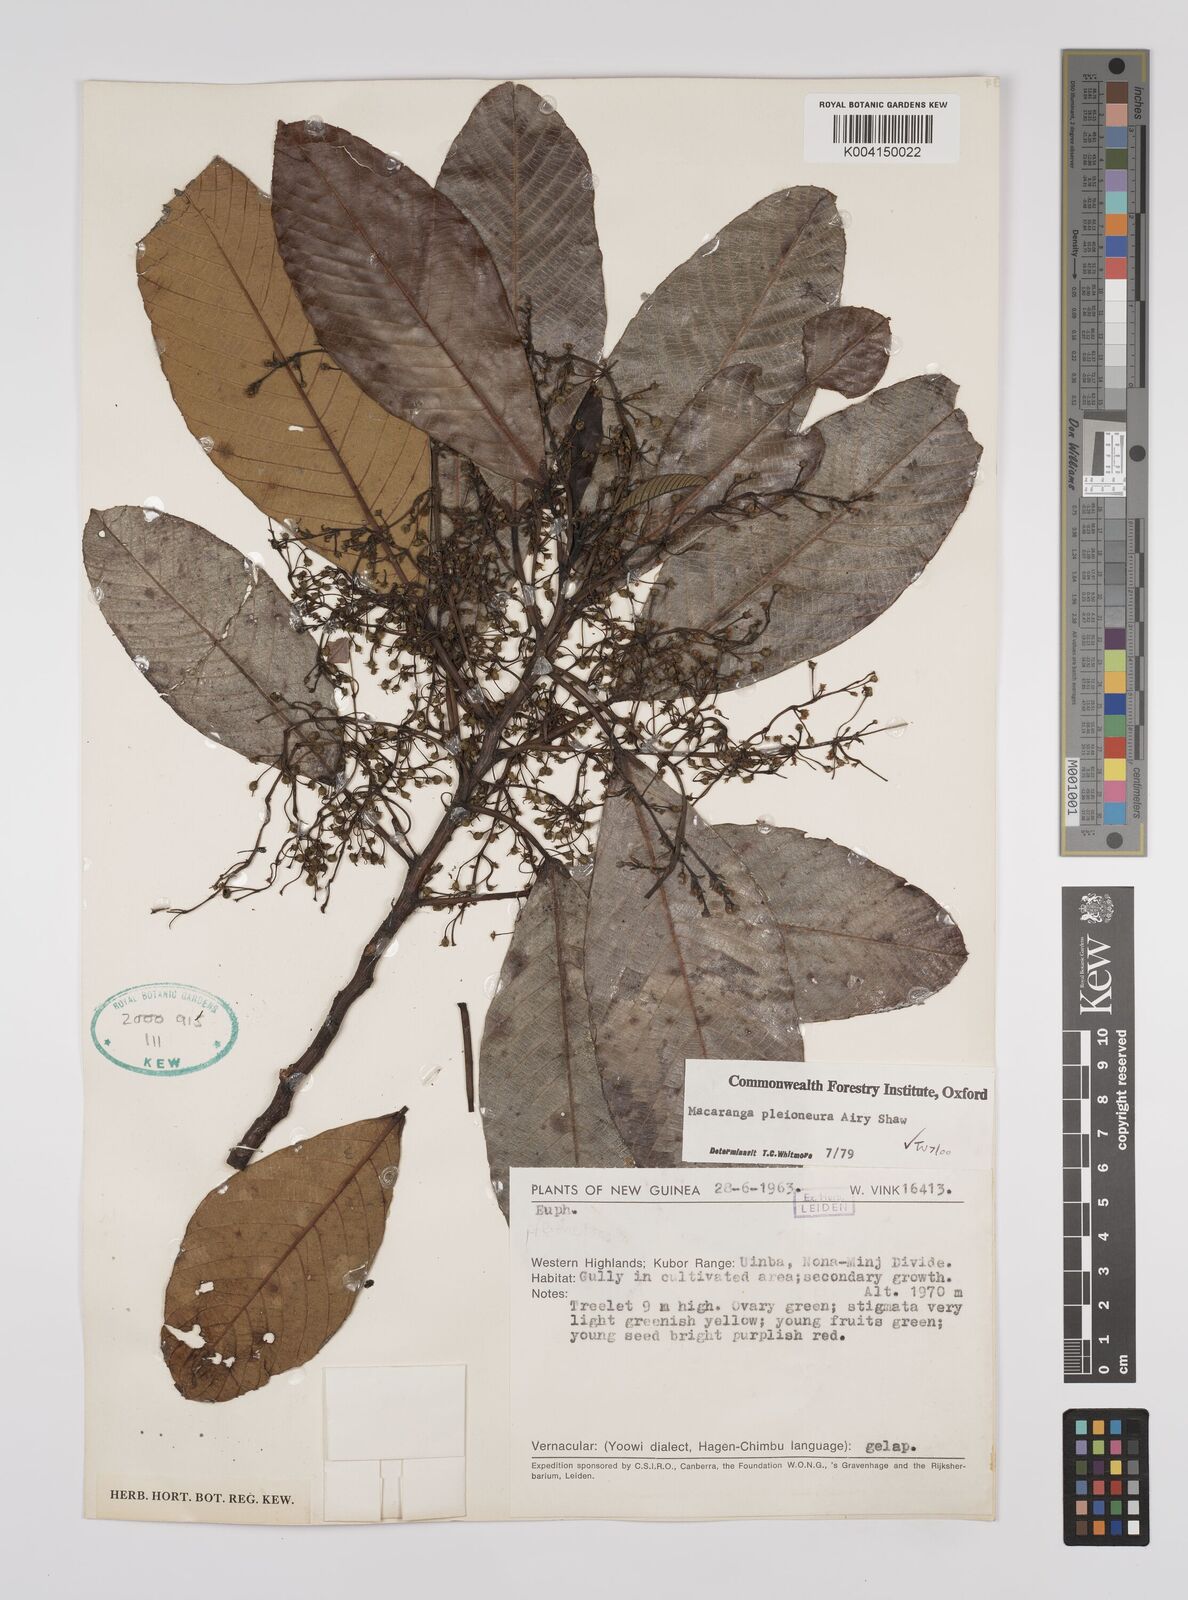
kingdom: Plantae
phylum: Tracheophyta
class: Magnoliopsida
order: Malpighiales
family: Euphorbiaceae
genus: Macaranga
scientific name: Macaranga pleioneura
